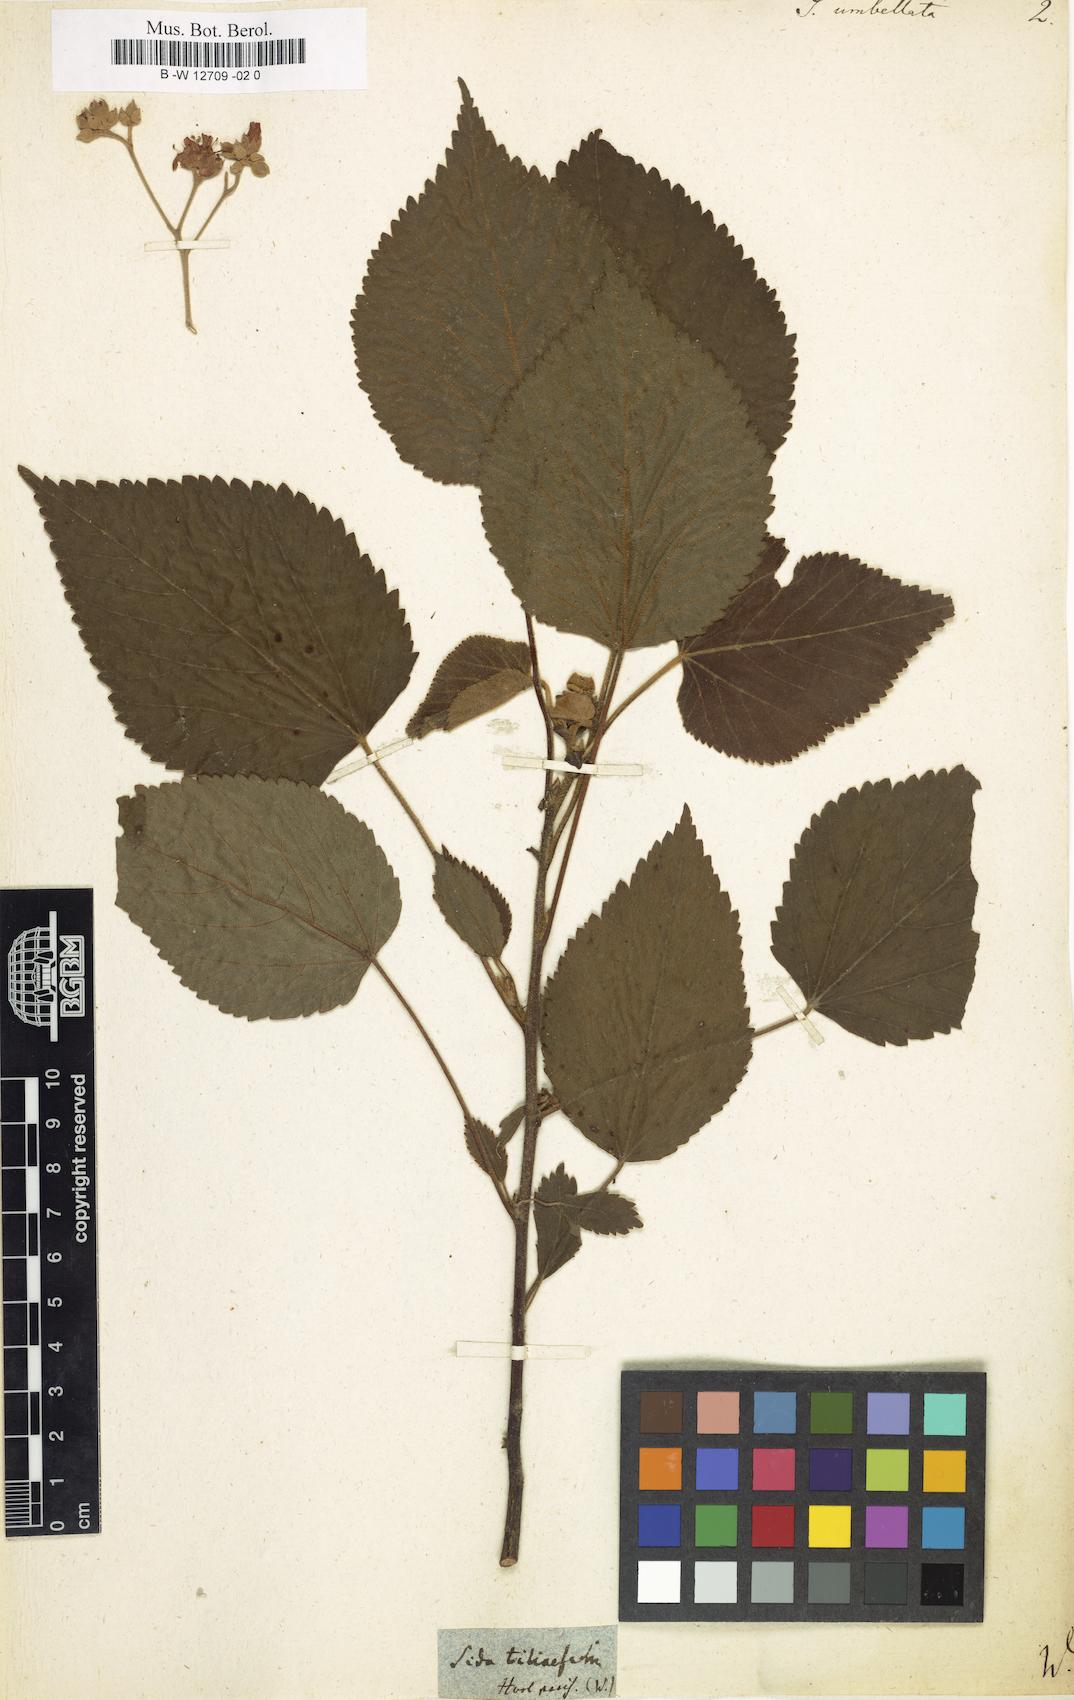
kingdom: Plantae
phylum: Tracheophyta
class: Magnoliopsida
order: Malvales
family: Malvaceae
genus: Pseudabutilon
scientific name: Pseudabutilon umbellatum
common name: Umbrella indian mallow
